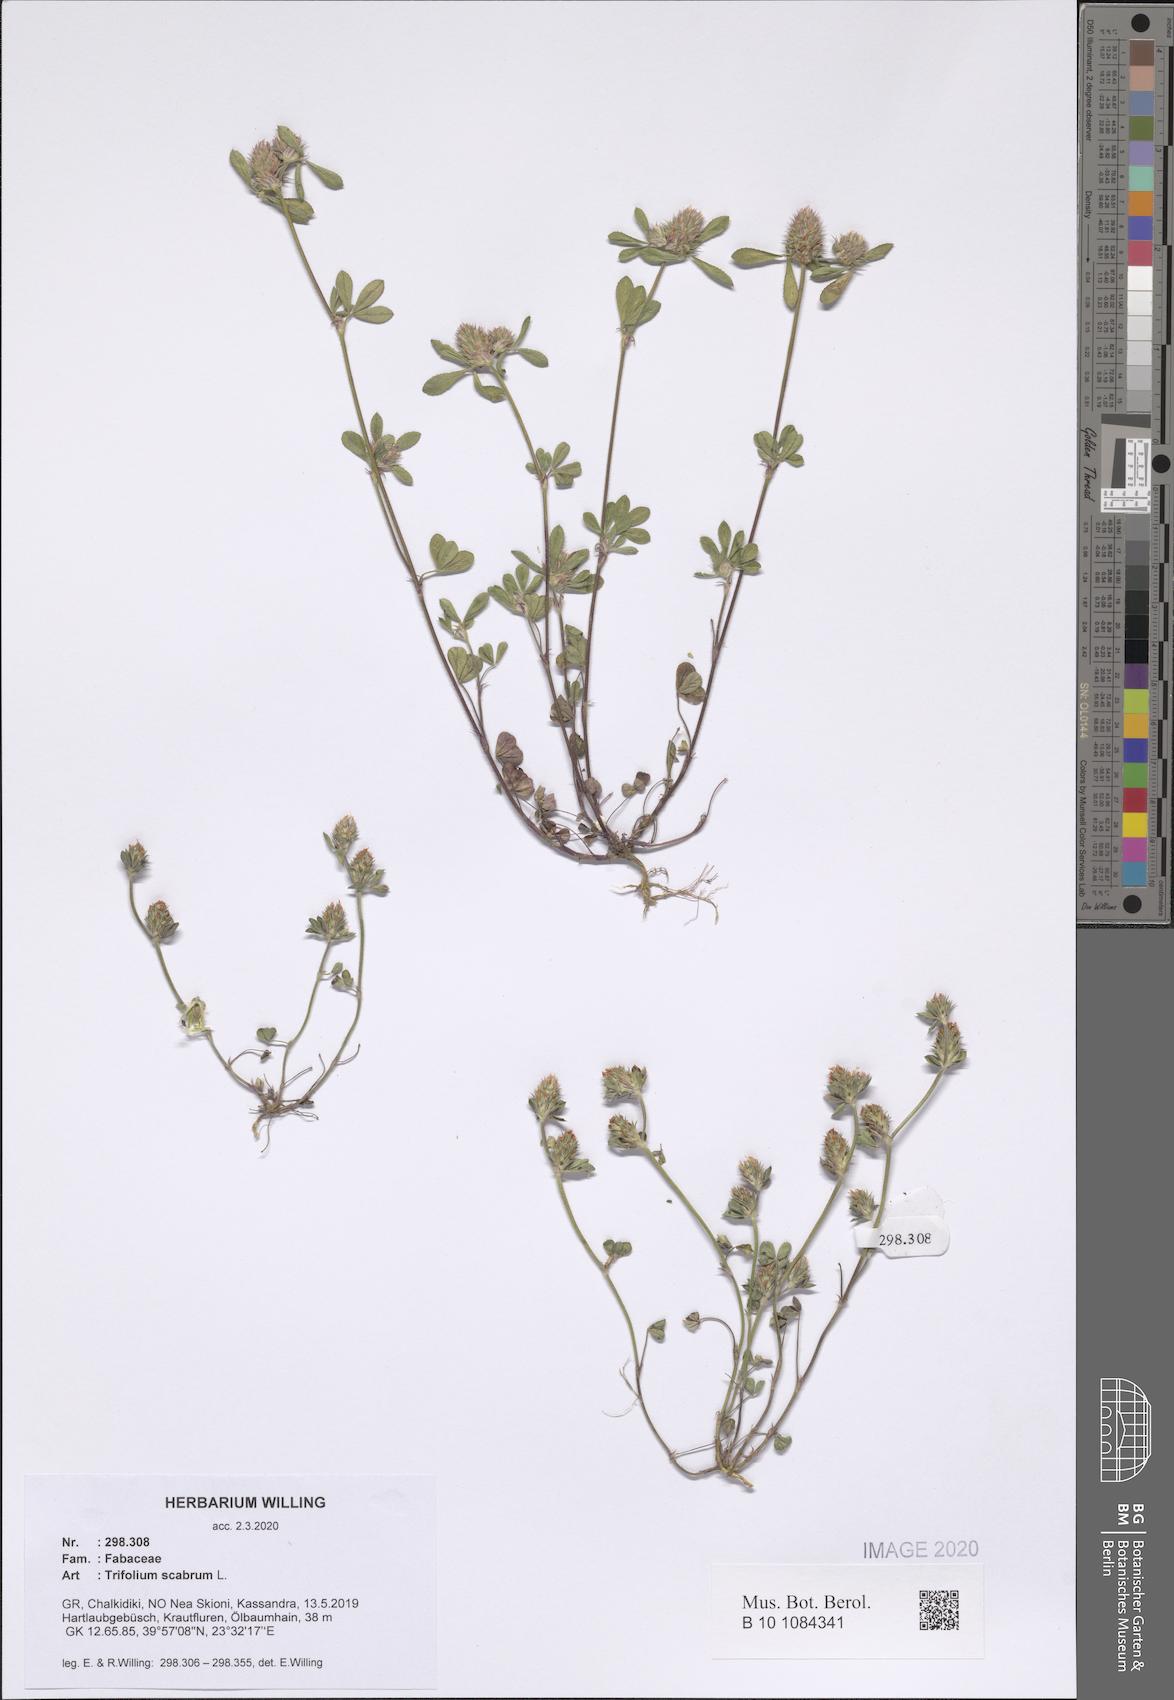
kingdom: Plantae
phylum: Tracheophyta
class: Magnoliopsida
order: Fabales
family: Fabaceae
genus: Trifolium
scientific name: Trifolium scabrum
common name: Rough clover
